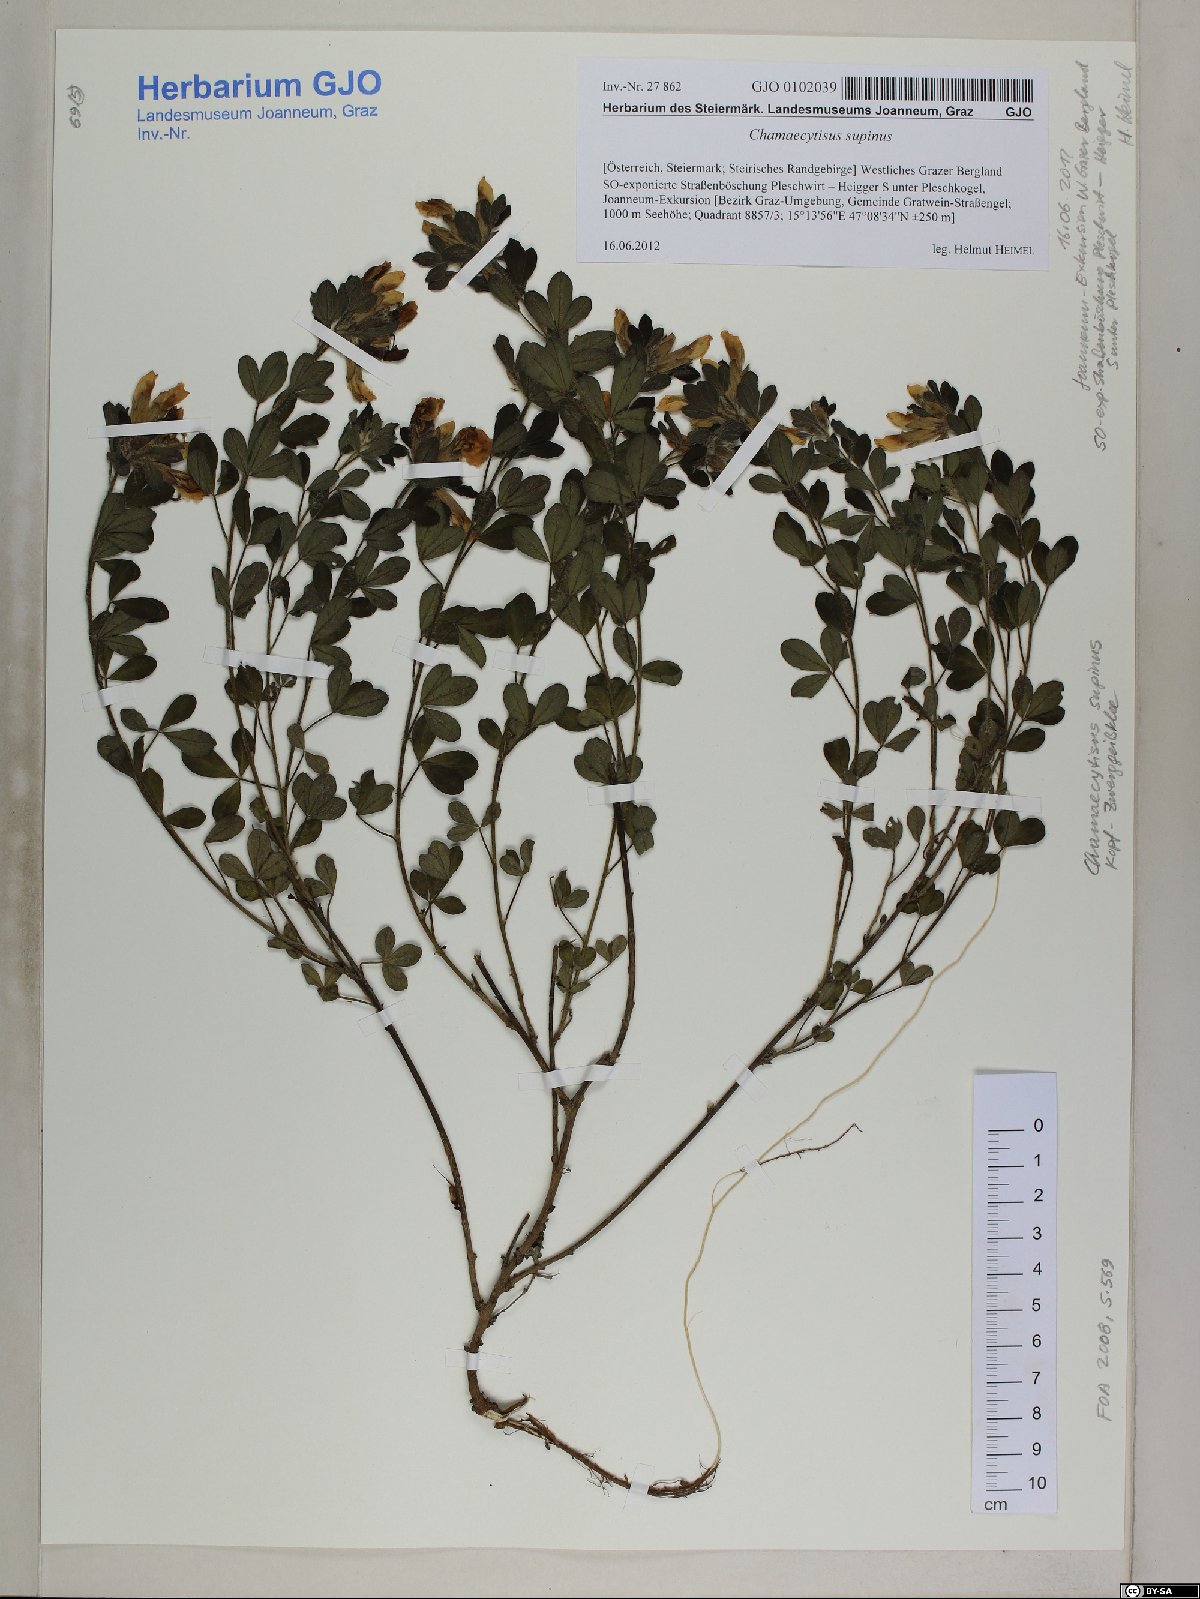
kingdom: Plantae
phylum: Tracheophyta
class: Magnoliopsida
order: Fabales
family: Fabaceae
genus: Chamaecytisus
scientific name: Chamaecytisus supinus
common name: Clustered broom
